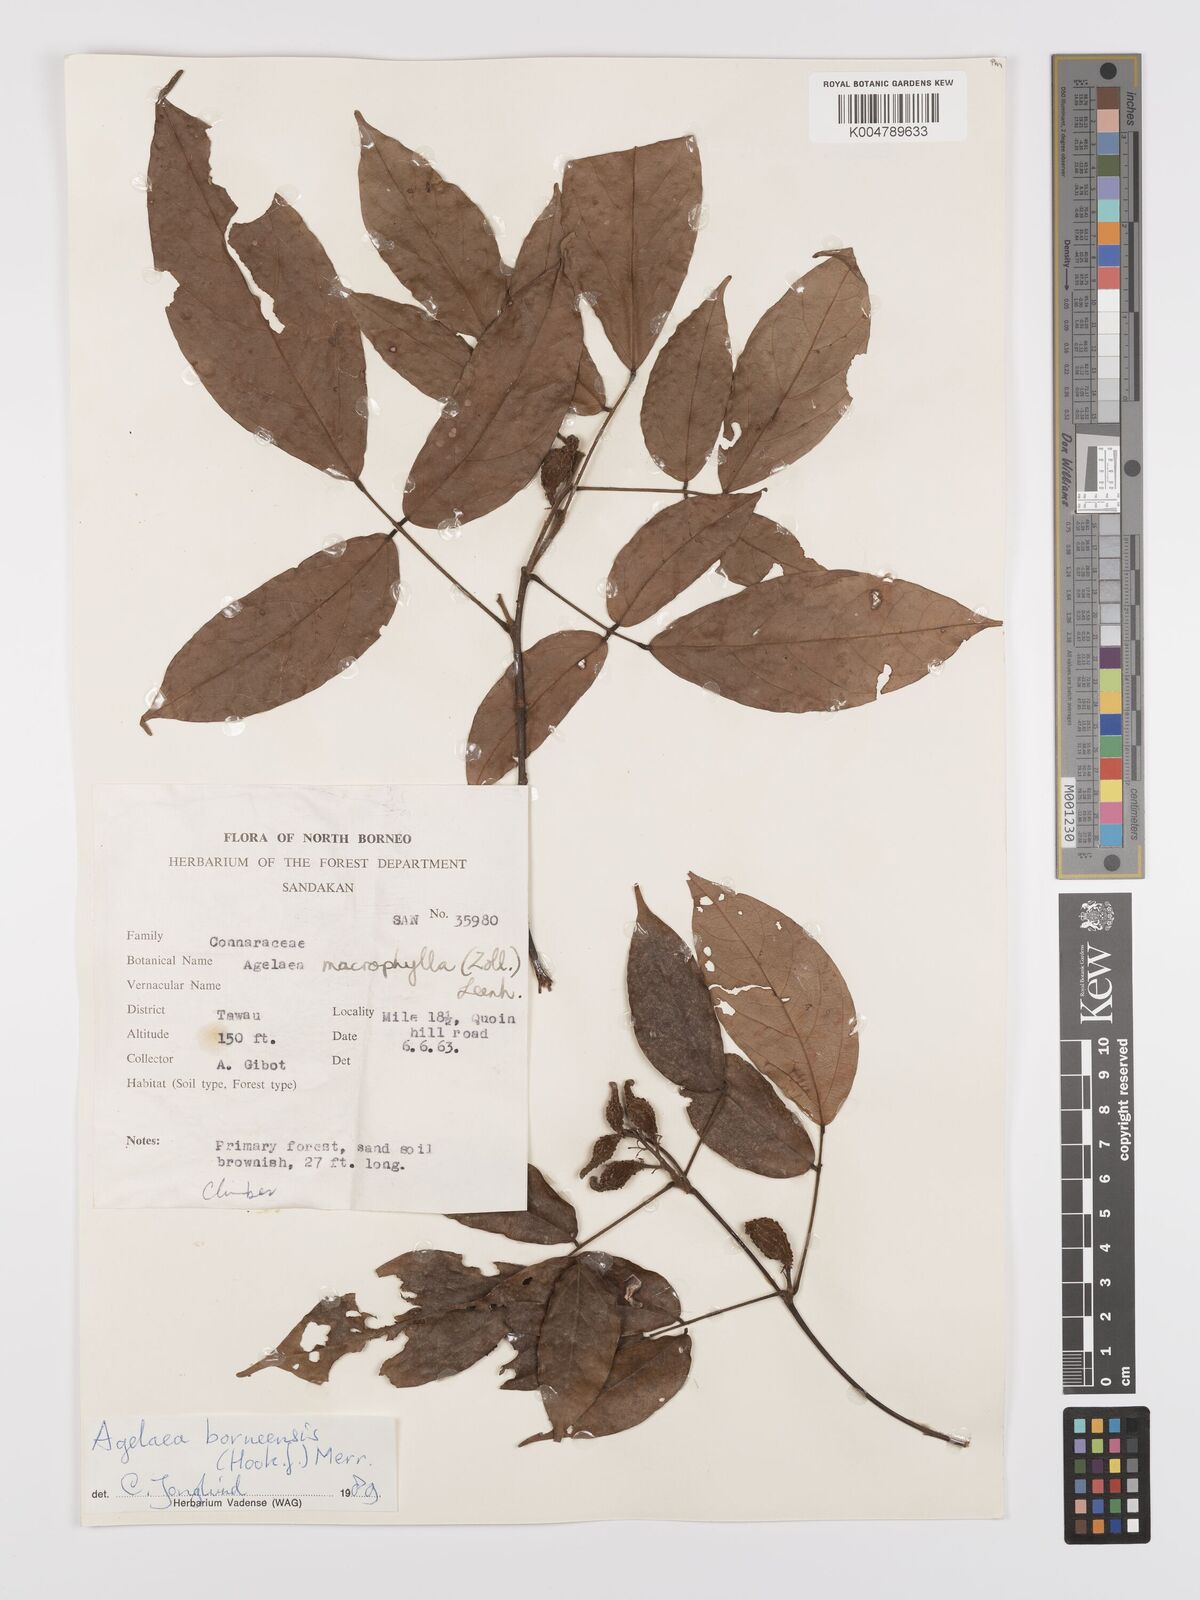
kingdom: Plantae
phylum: Tracheophyta
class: Magnoliopsida
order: Oxalidales
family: Connaraceae
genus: Agelaea
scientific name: Agelaea borneensis
